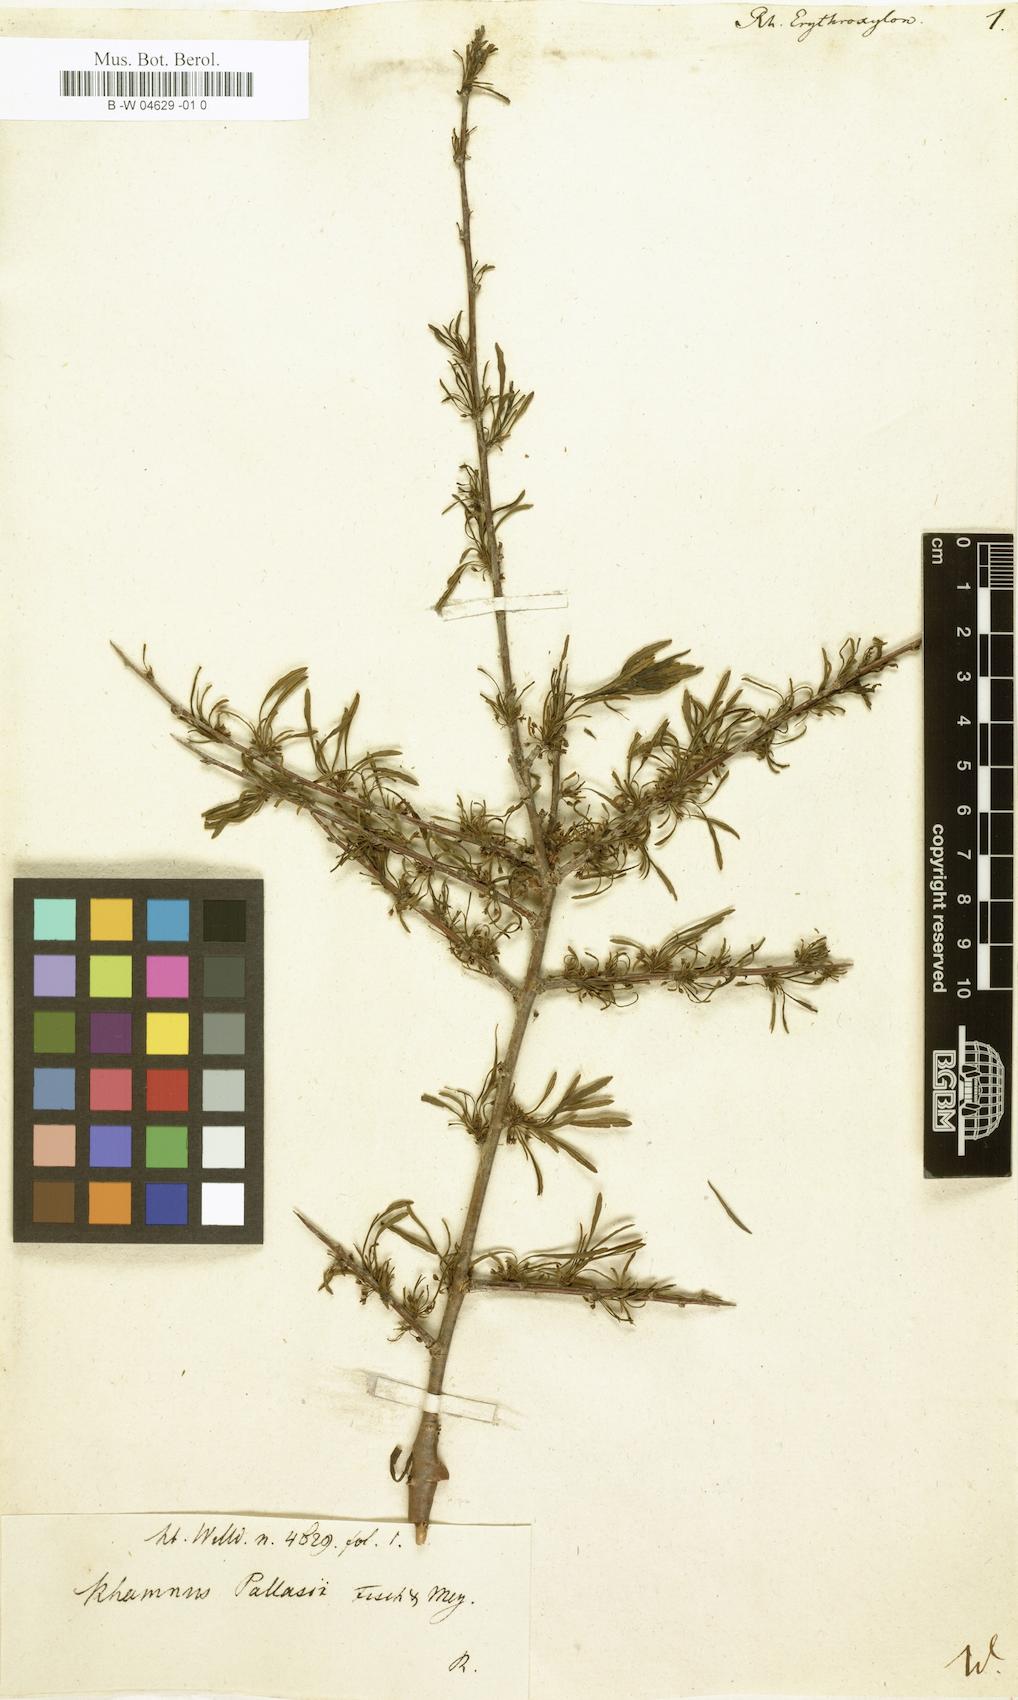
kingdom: Plantae
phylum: Tracheophyta
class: Magnoliopsida
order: Rosales
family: Rhamnaceae
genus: Rhamnus
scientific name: Rhamnus erythroxyloides
